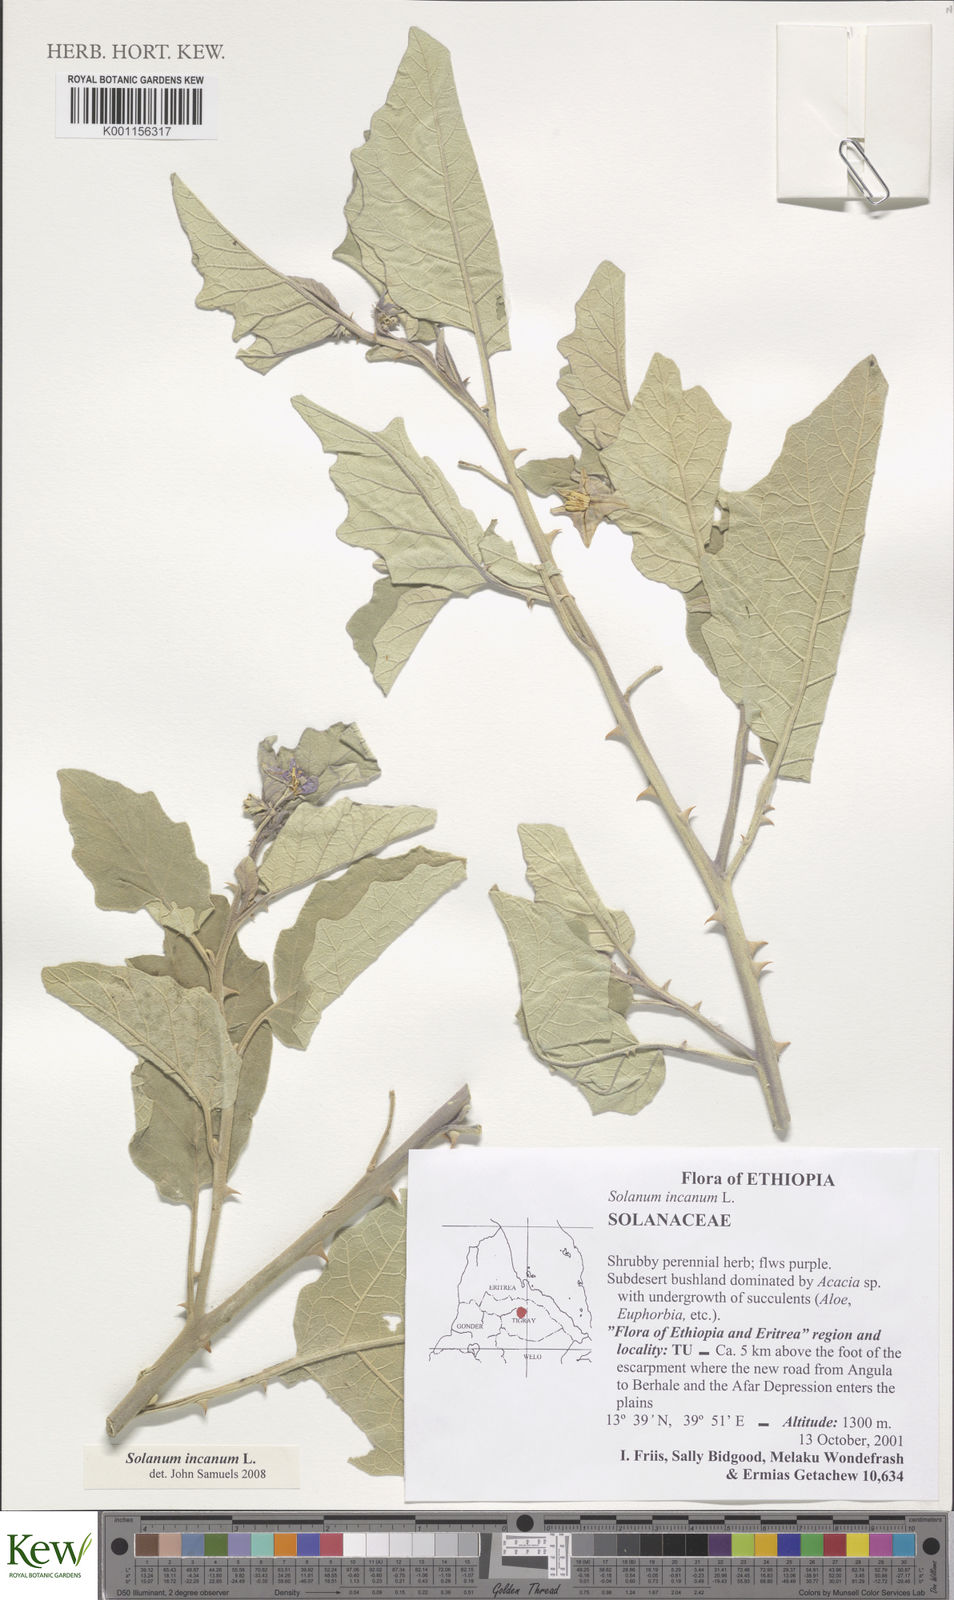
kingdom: Plantae
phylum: Tracheophyta
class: Magnoliopsida
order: Solanales
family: Solanaceae
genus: Solanum
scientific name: Solanum incanum
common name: Bitter apple
